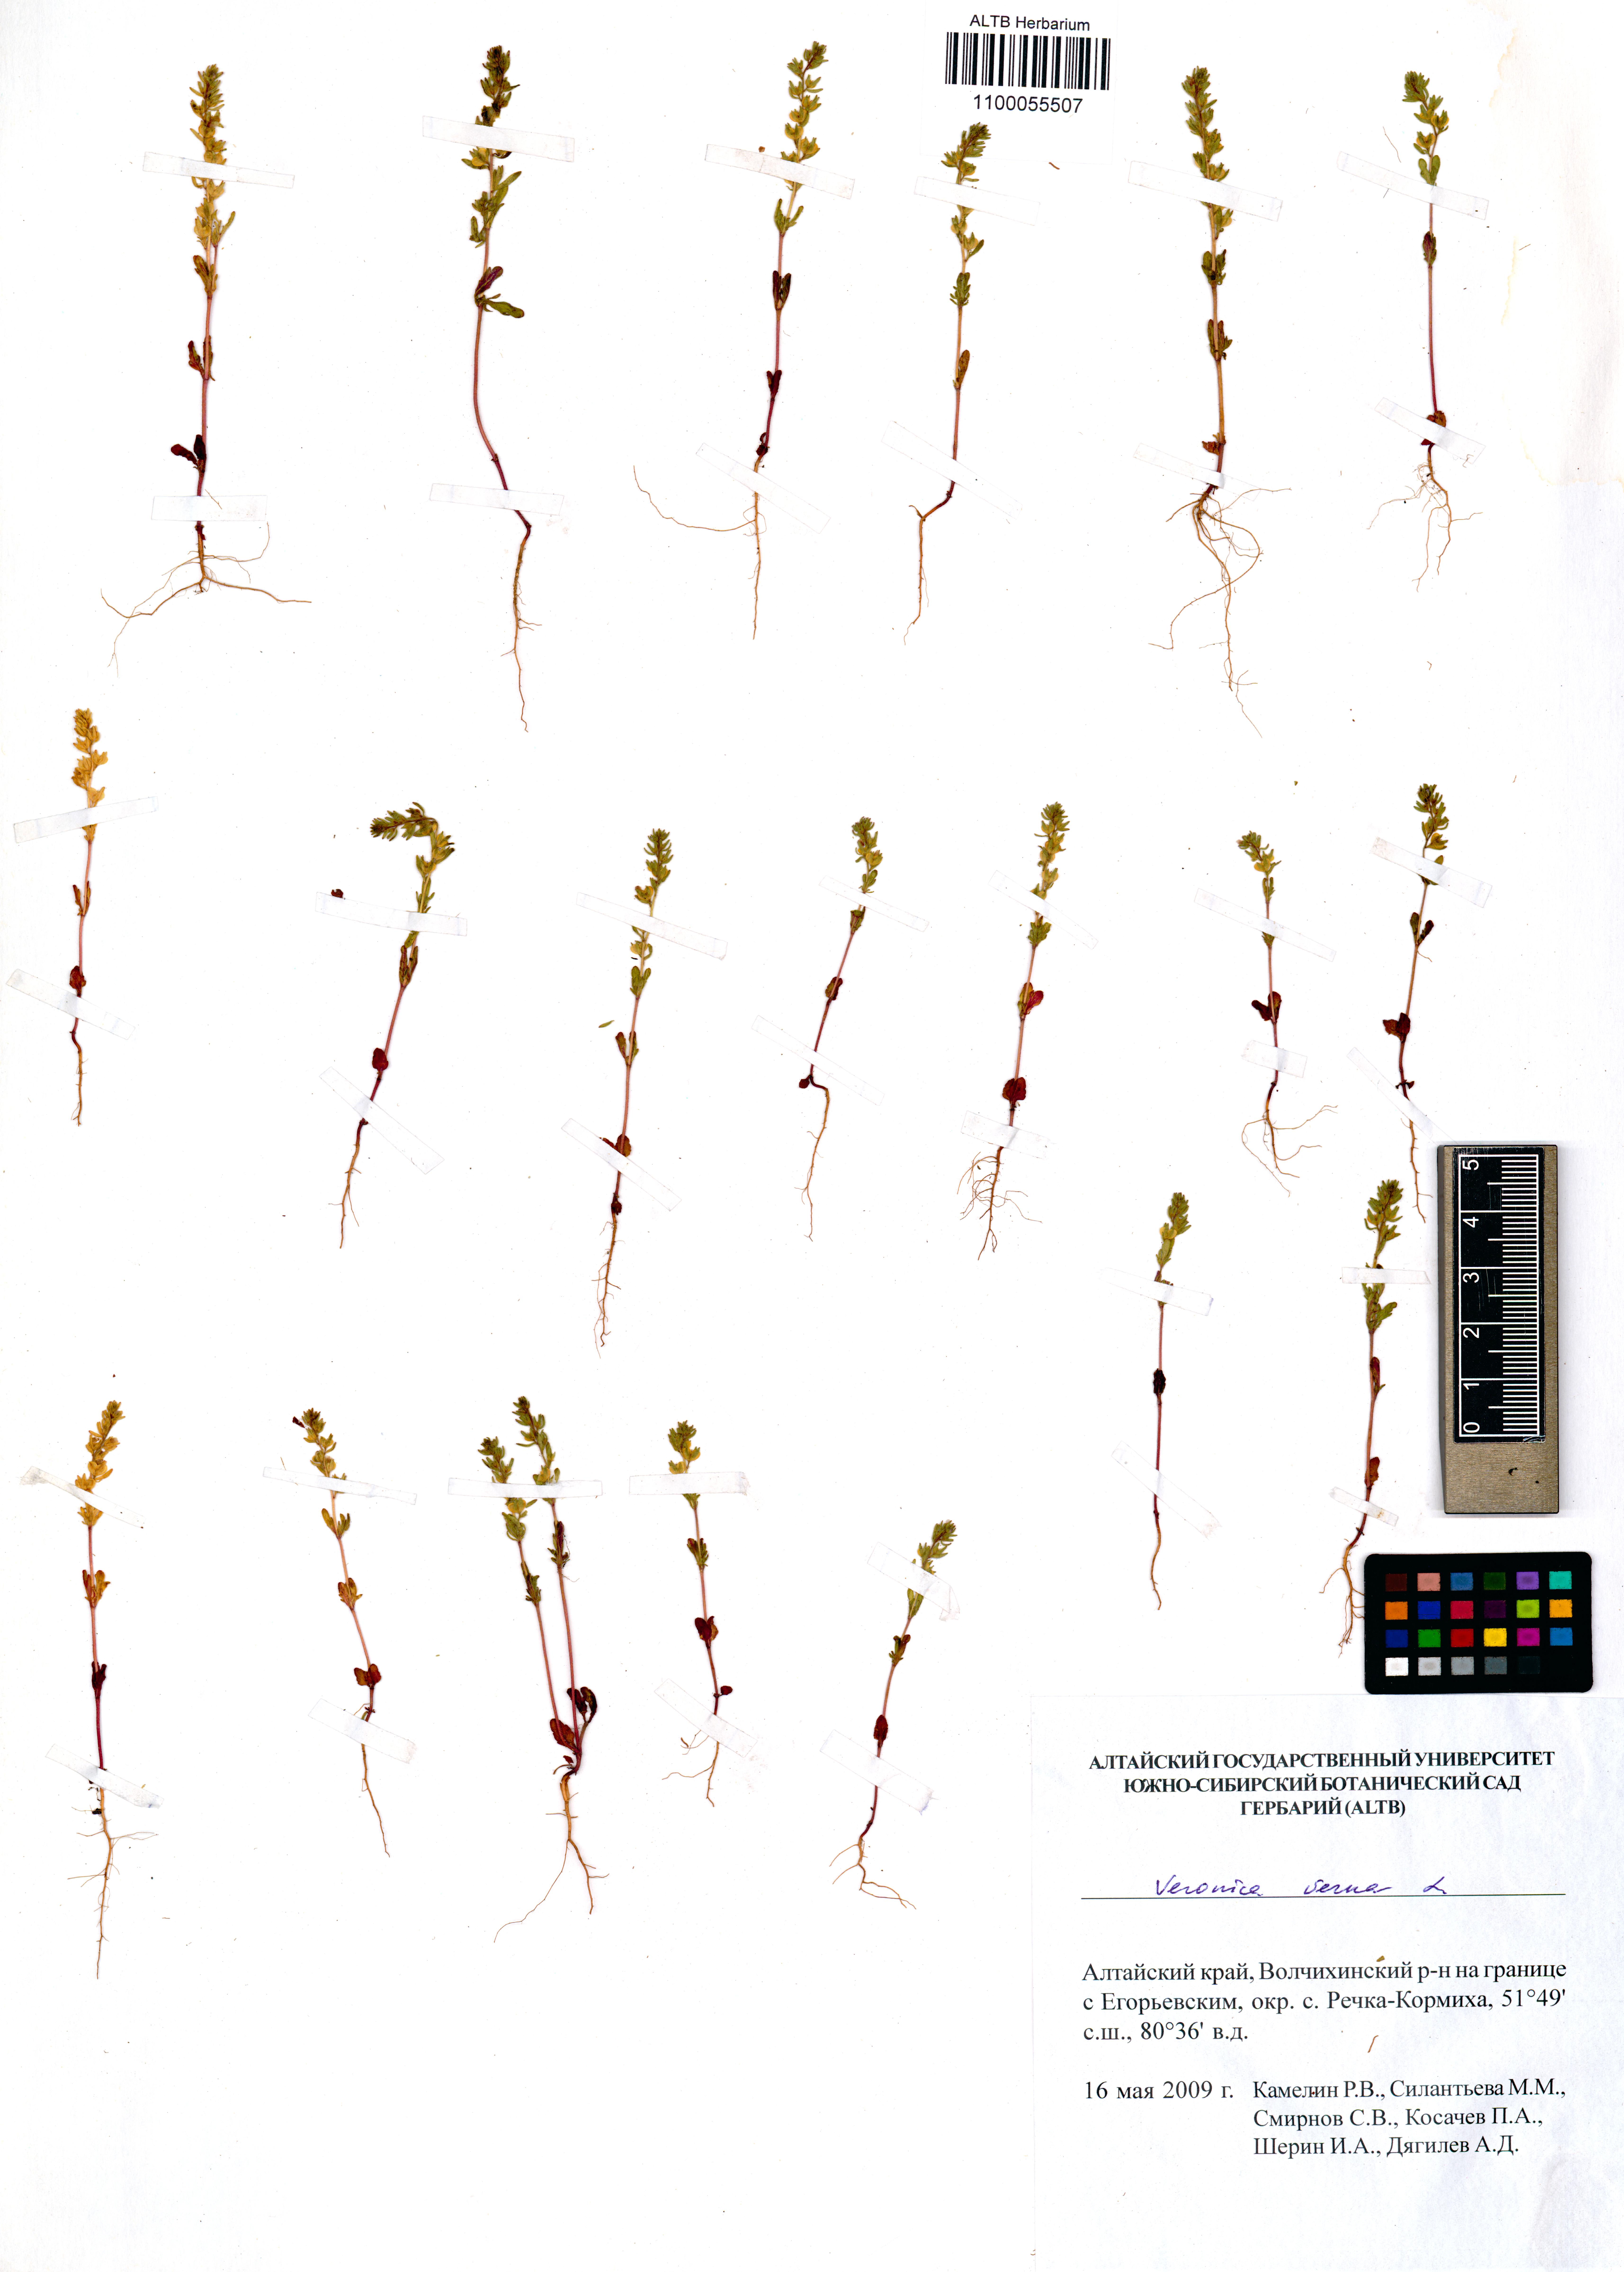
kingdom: Plantae
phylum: Tracheophyta
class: Magnoliopsida
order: Lamiales
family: Plantaginaceae
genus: Veronica
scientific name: Veronica verna
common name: Spring speedwell
